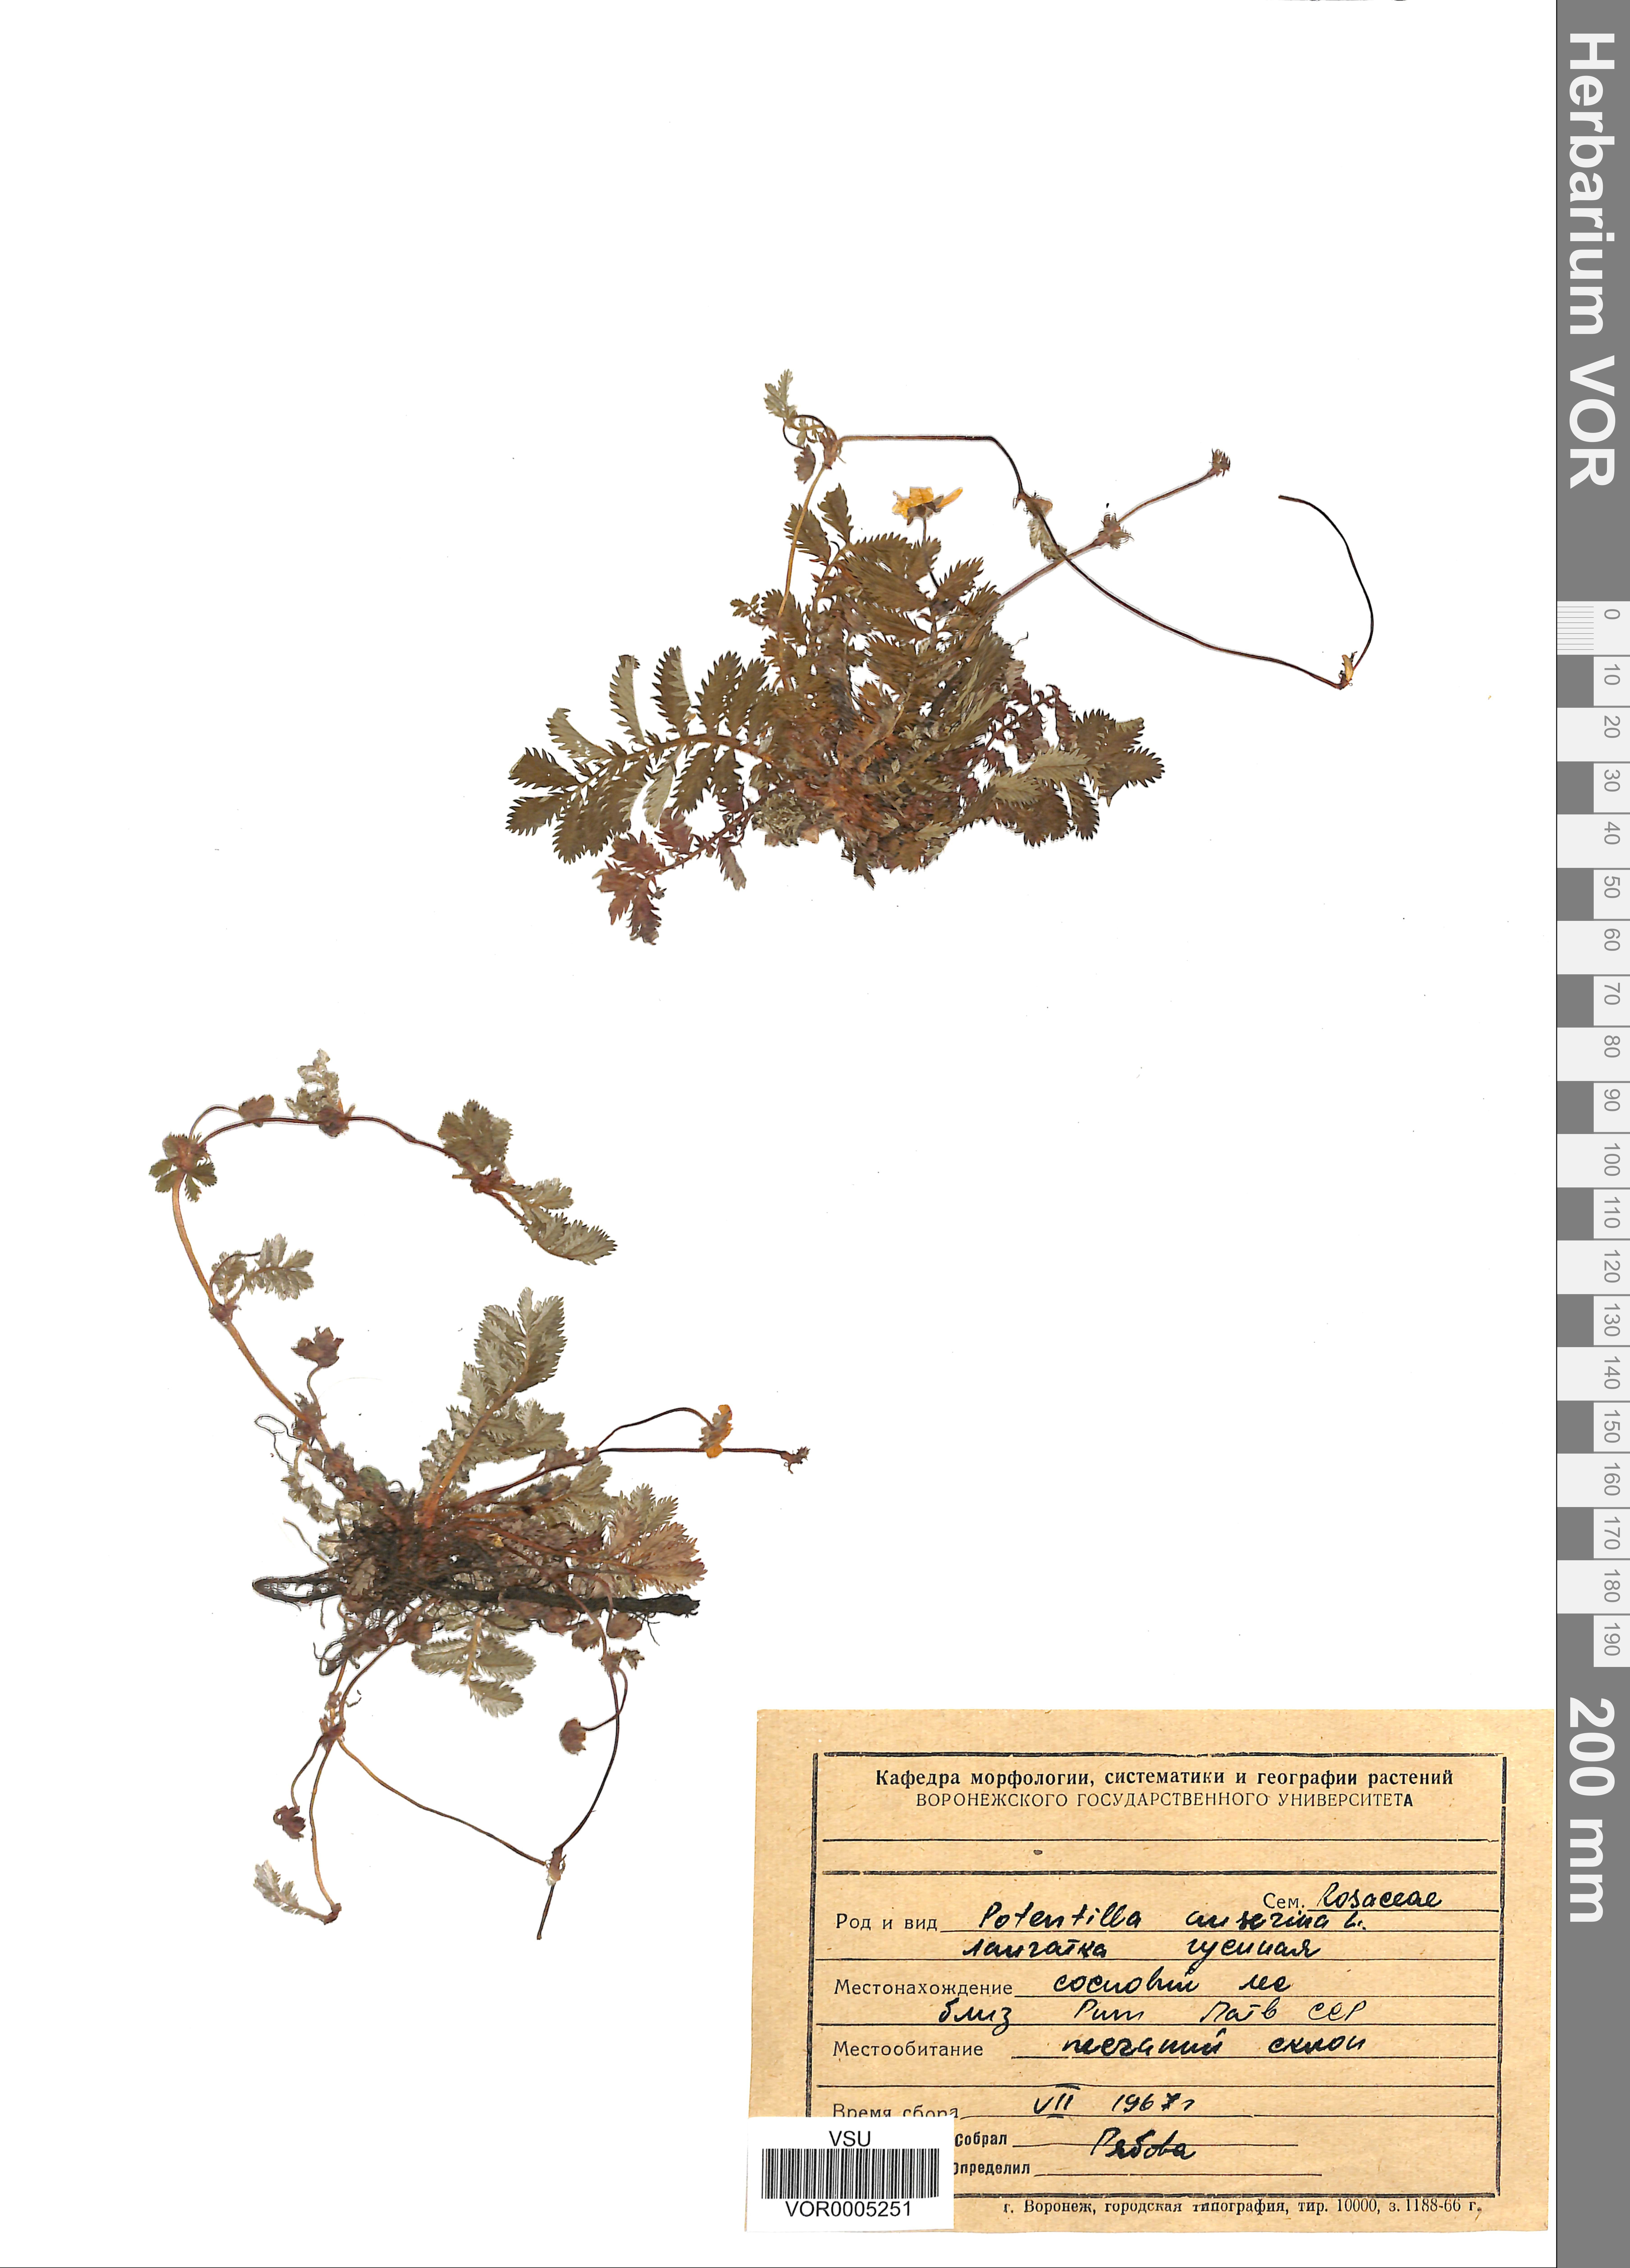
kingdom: Plantae
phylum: Tracheophyta
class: Magnoliopsida
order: Rosales
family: Rosaceae
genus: Argentina
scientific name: Argentina anserina
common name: Common silverweed
